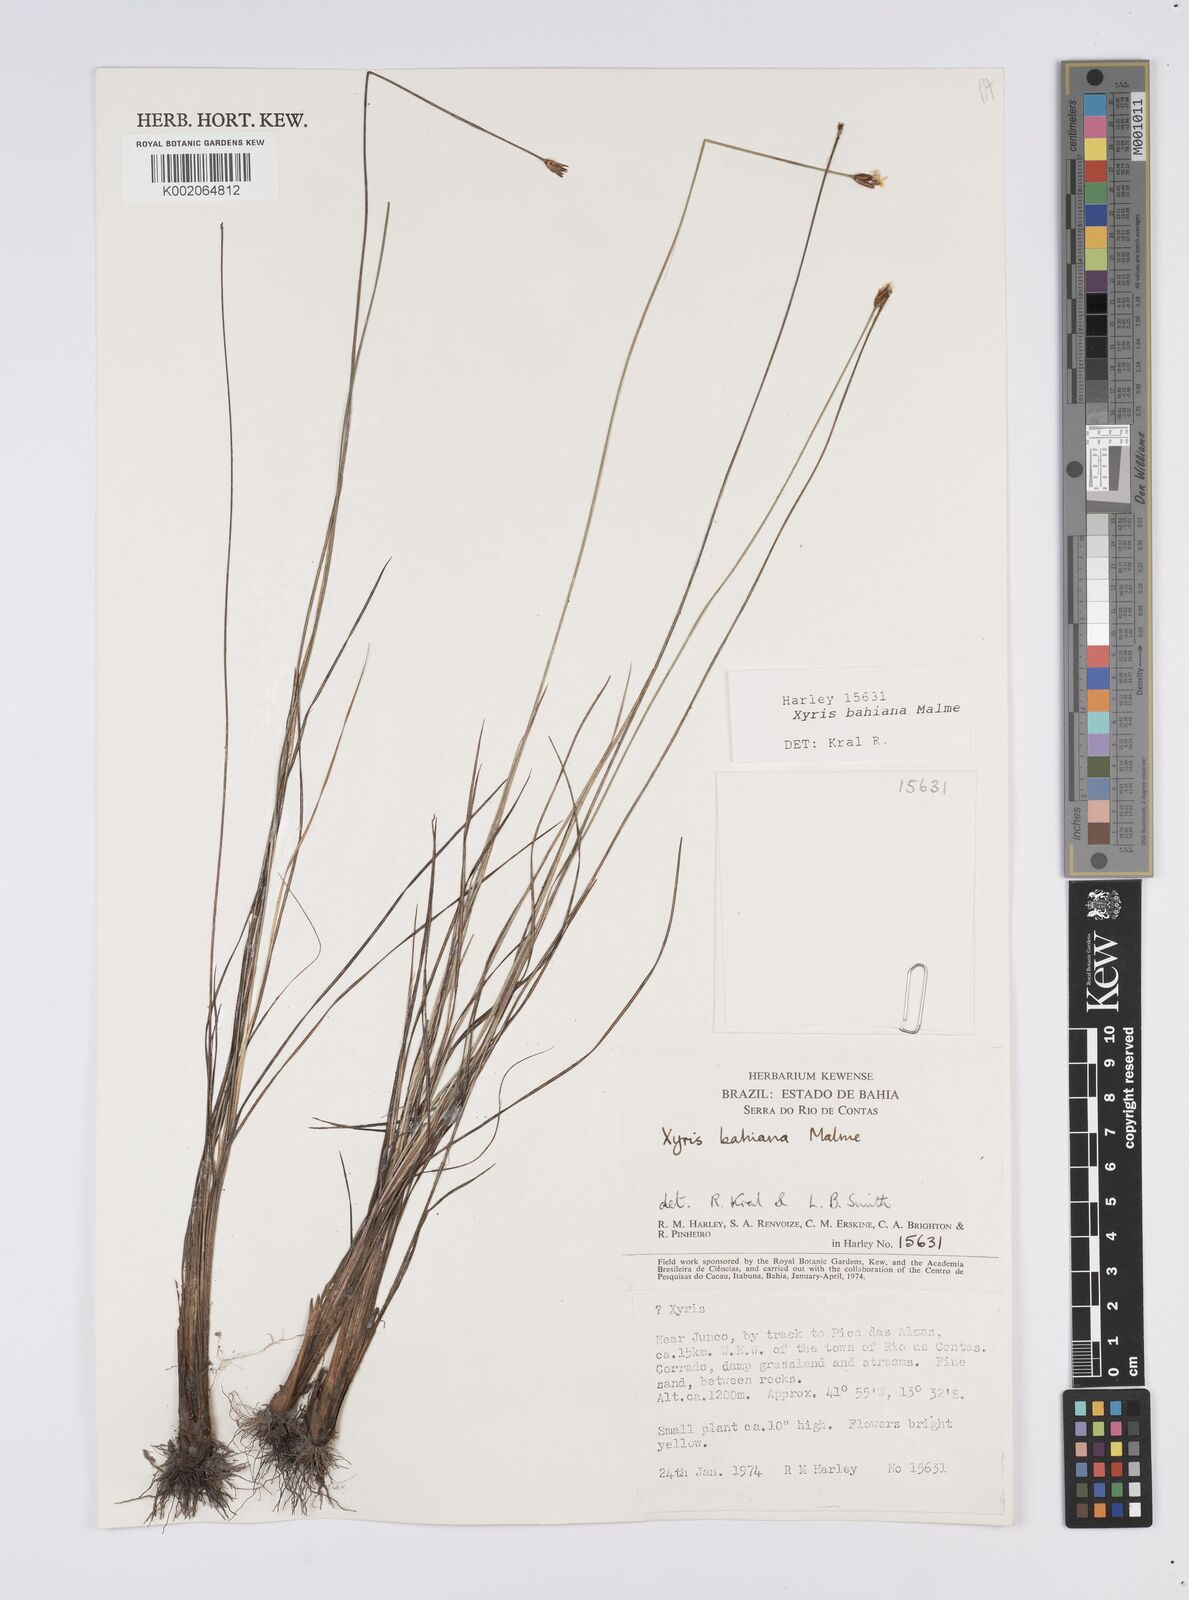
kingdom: Plantae
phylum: Tracheophyta
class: Liliopsida
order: Poales
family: Xyridaceae
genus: Xyris
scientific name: Xyris bahiana
